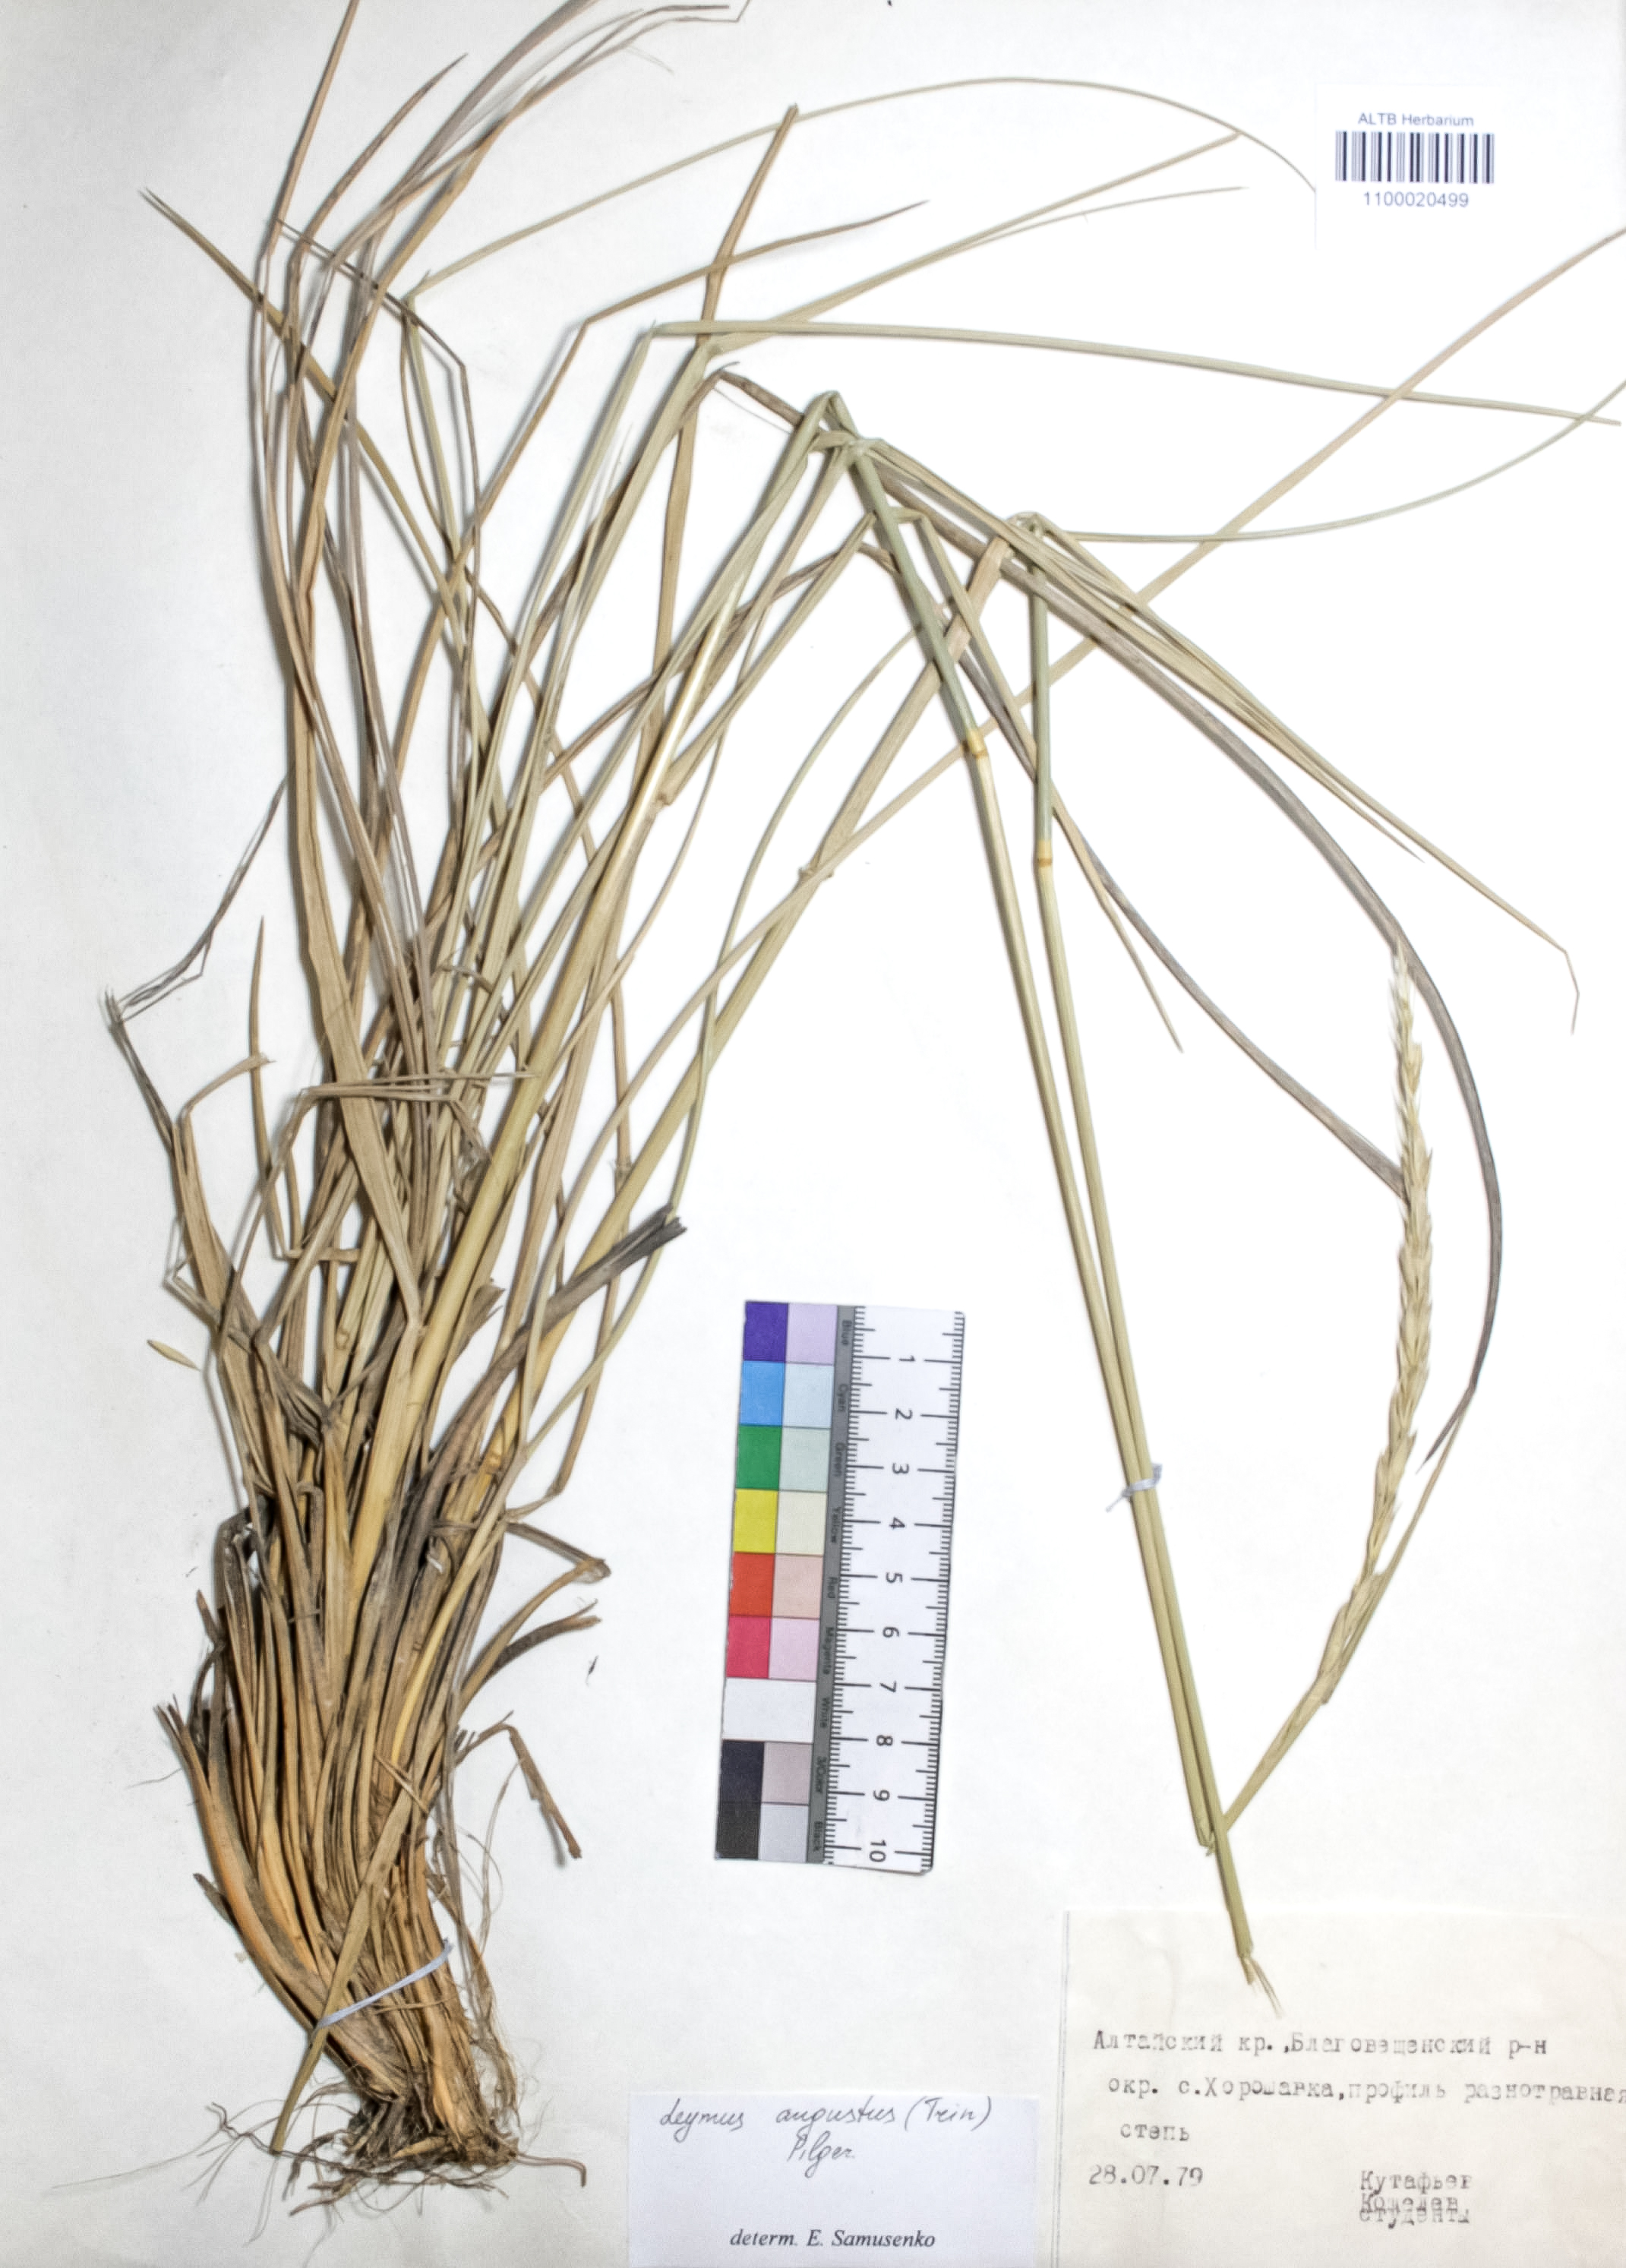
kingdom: Plantae
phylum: Tracheophyta
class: Liliopsida
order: Poales
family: Poaceae
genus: Leymus
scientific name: Leymus angustus
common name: Altai wildrye
